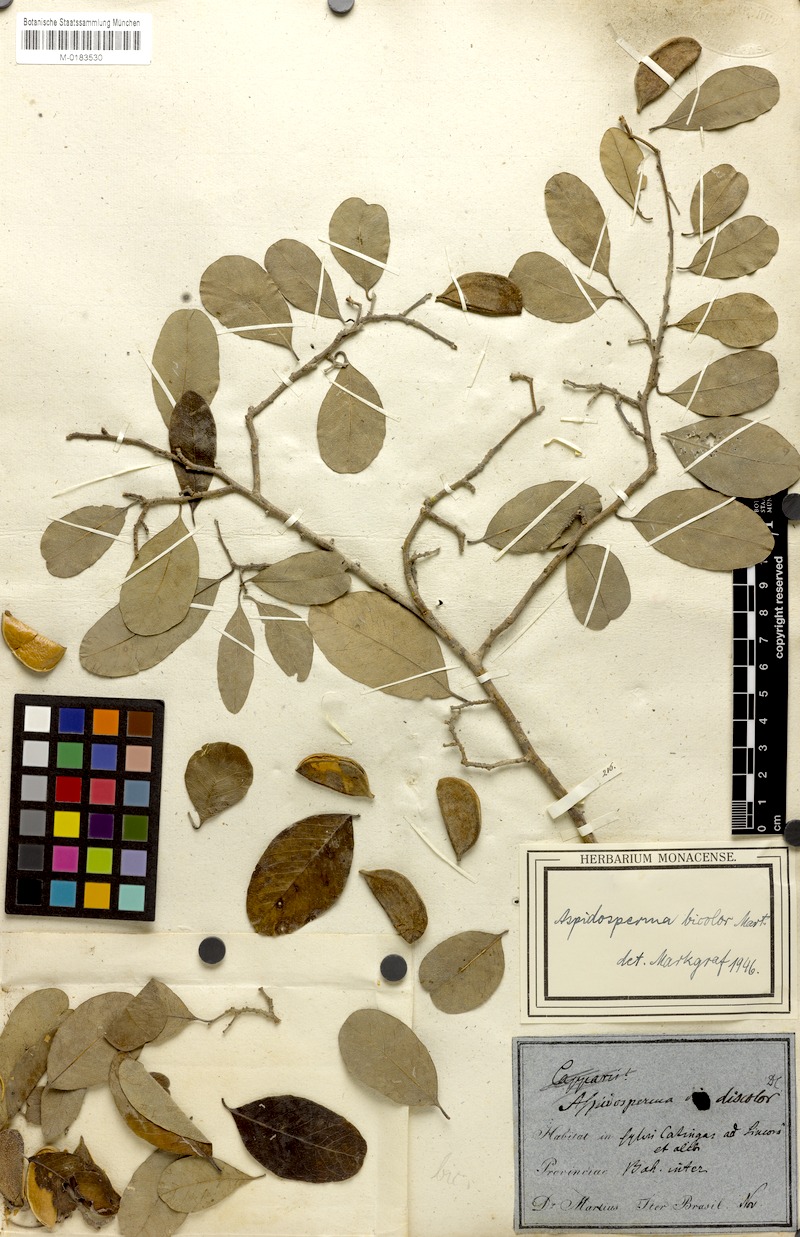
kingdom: Plantae
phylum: Tracheophyta
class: Magnoliopsida
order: Gentianales
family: Apocynaceae
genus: Aspidosperma
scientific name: Aspidosperma pyrifolium
